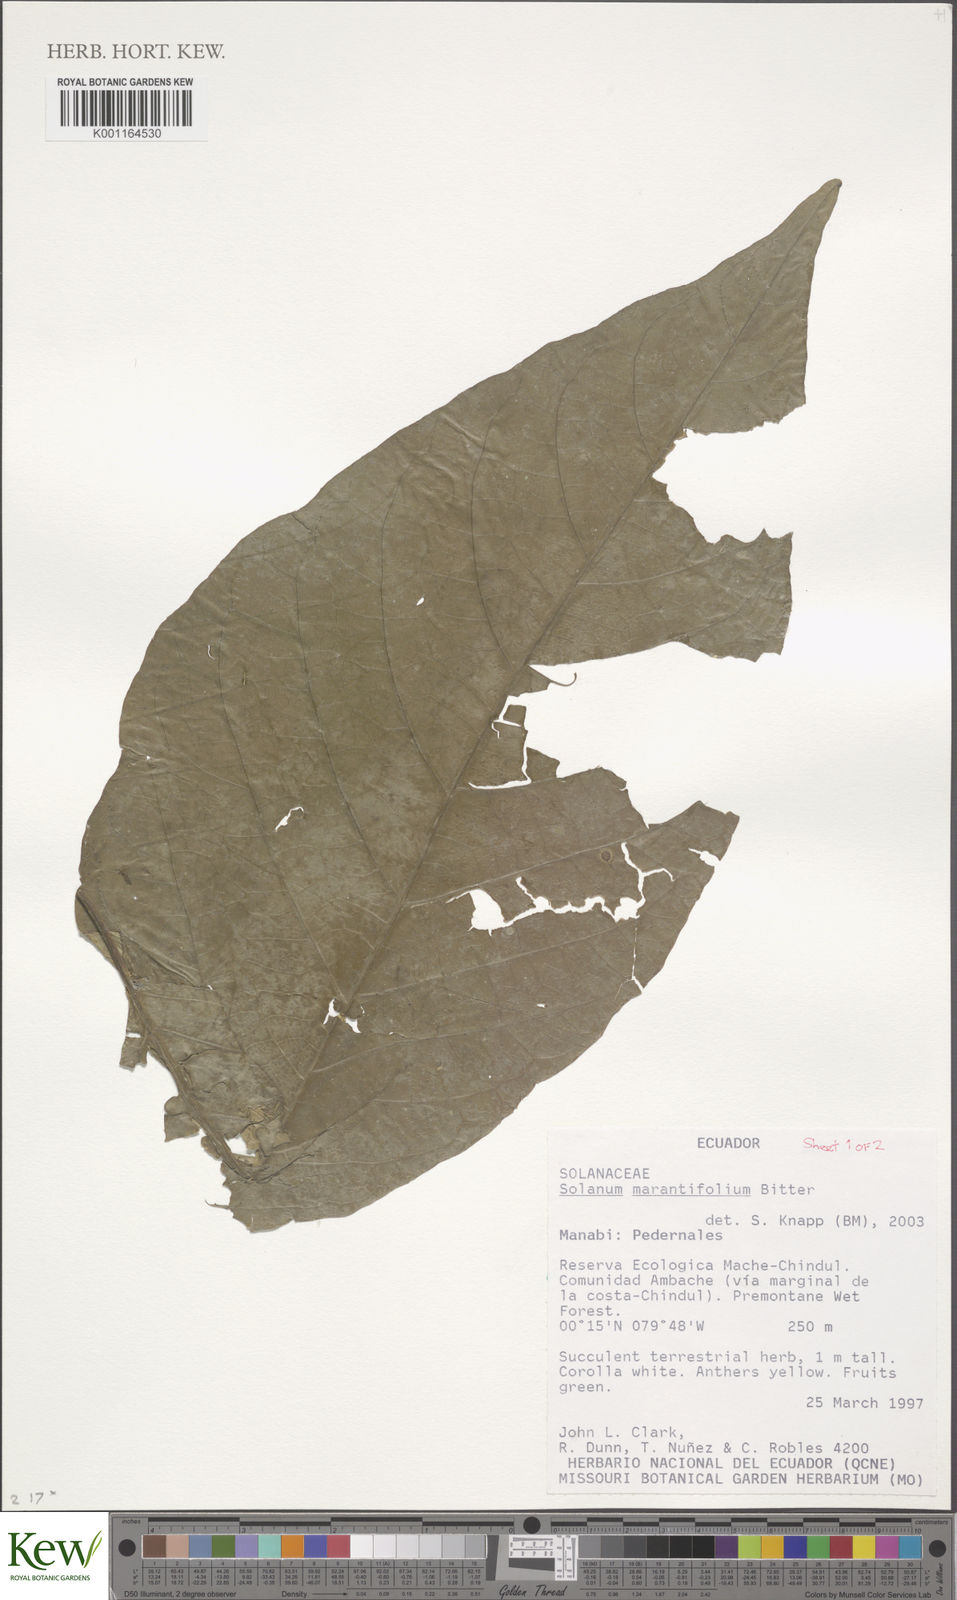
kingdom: Plantae
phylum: Tracheophyta
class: Magnoliopsida
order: Solanales
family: Solanaceae
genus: Solanum
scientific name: Solanum marantifolium
